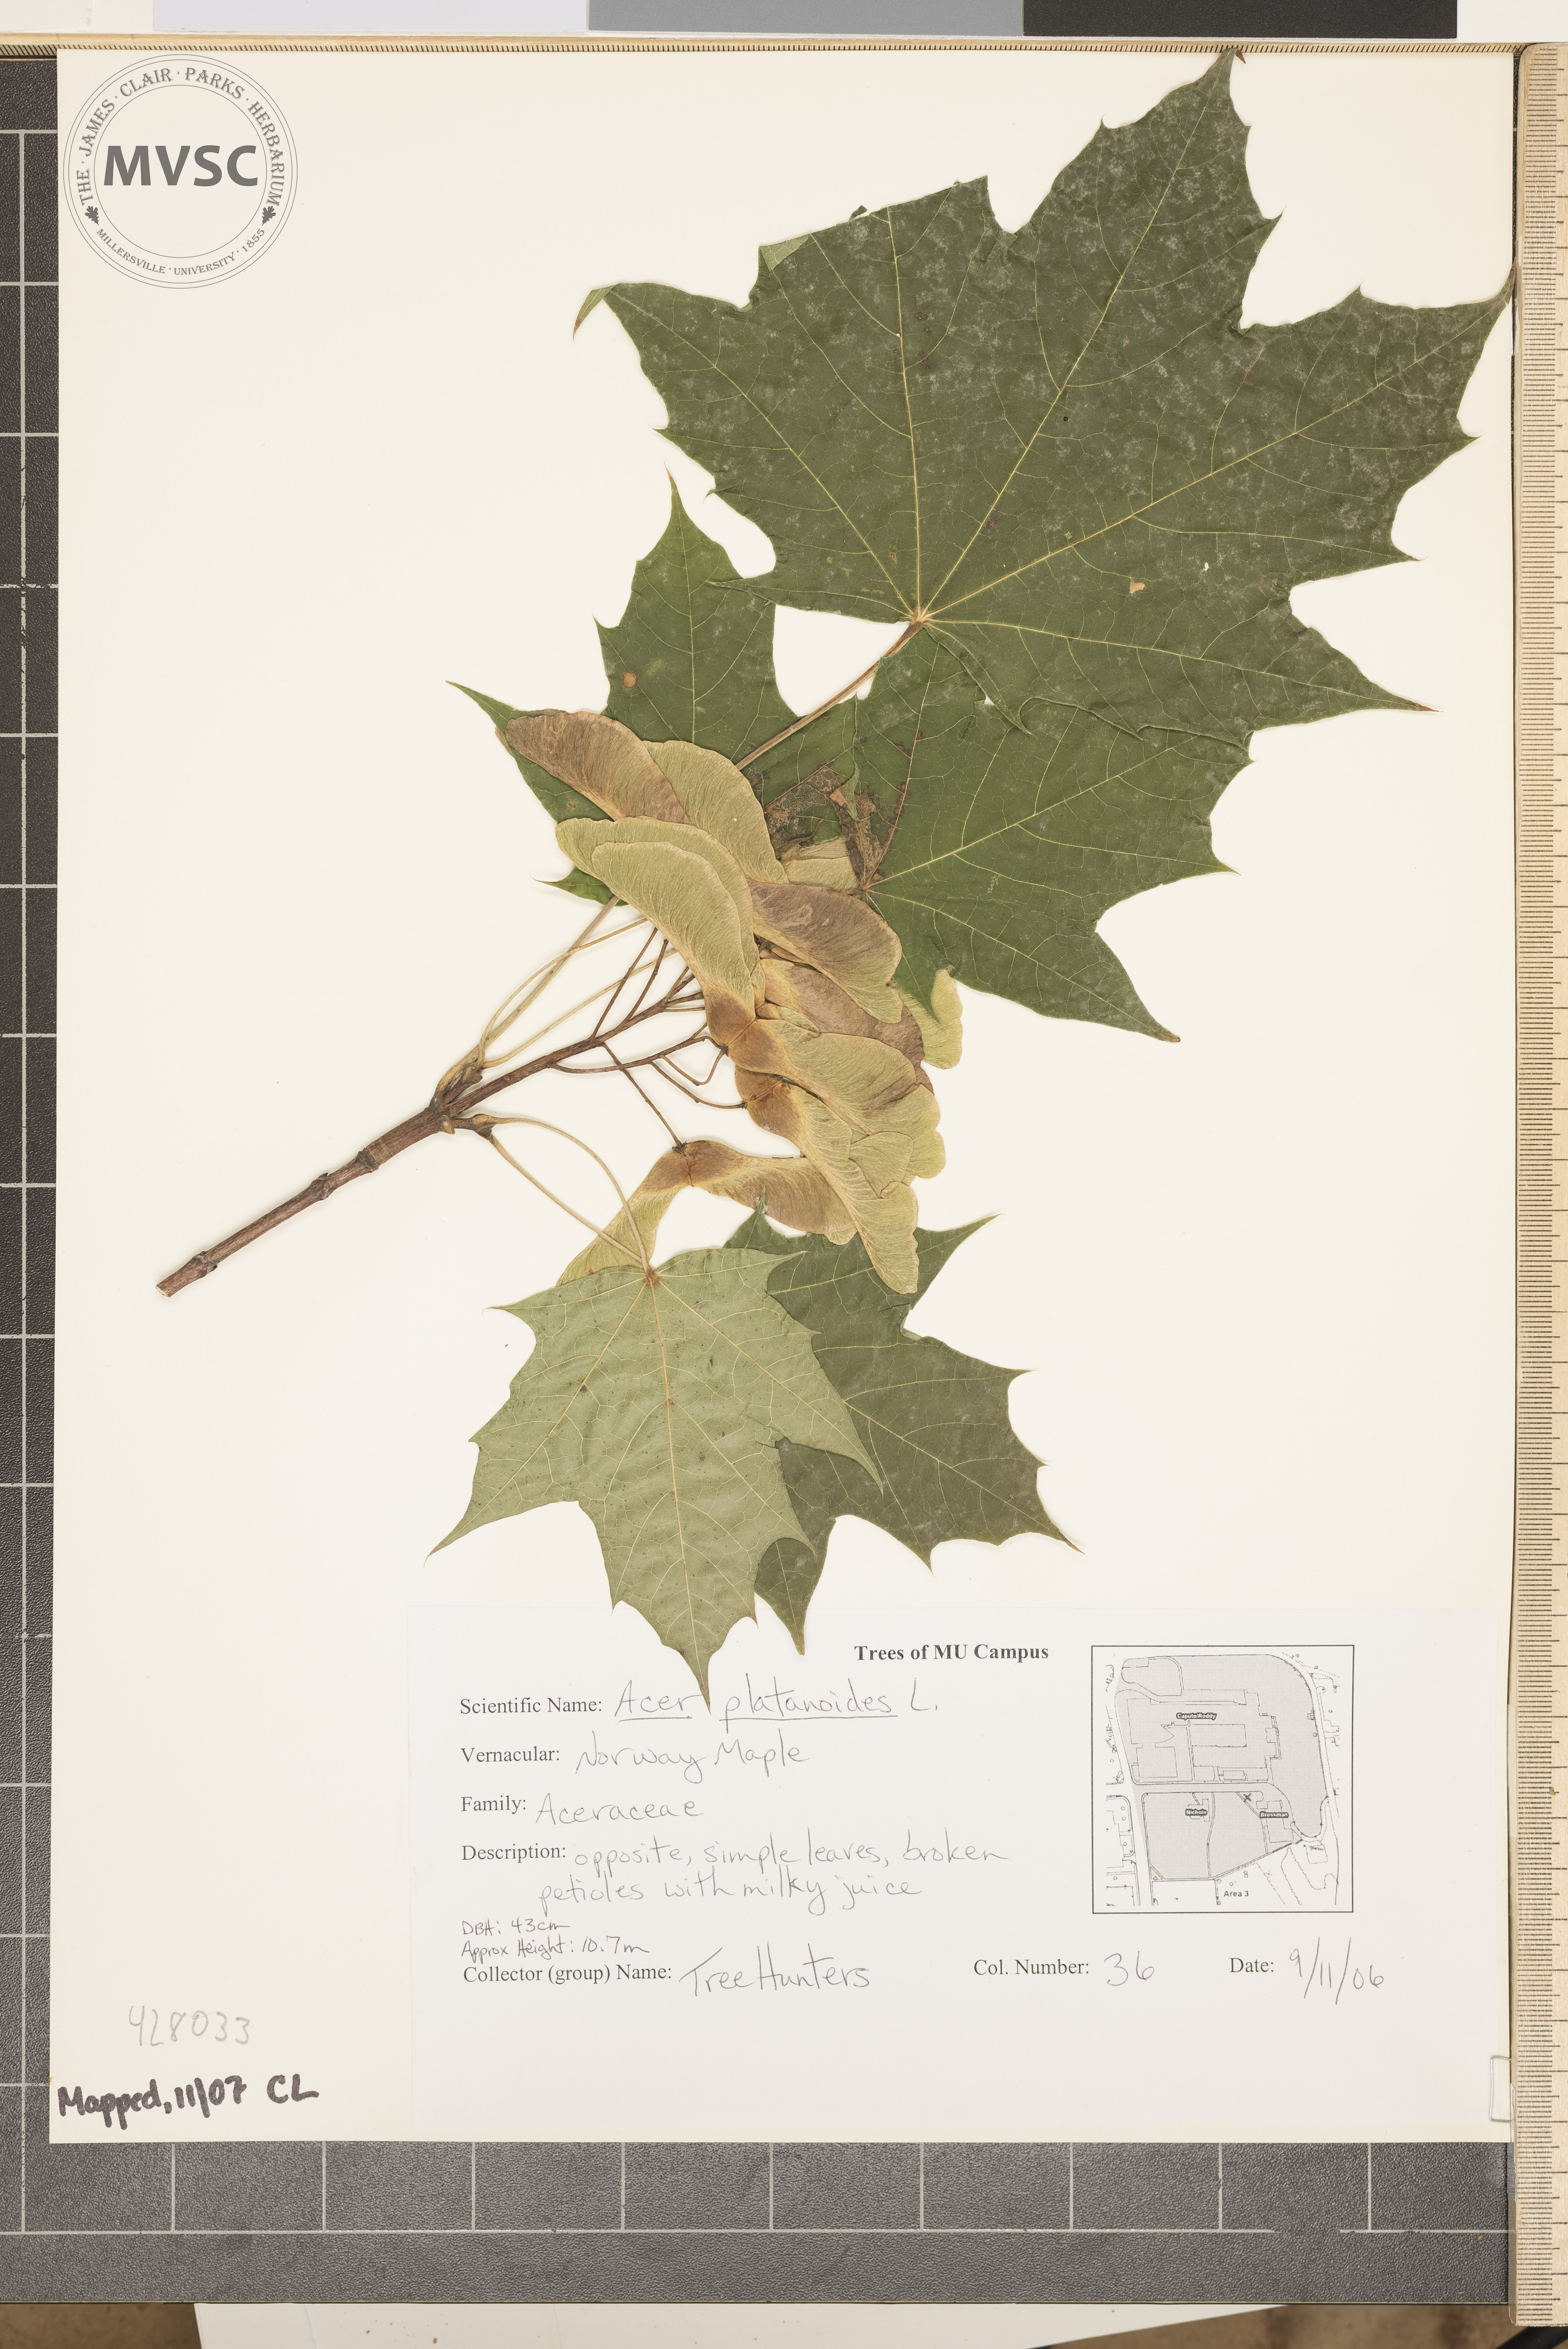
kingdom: Plantae
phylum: Tracheophyta
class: Magnoliopsida
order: Sapindales
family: Sapindaceae
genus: Acer
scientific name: Acer platanoides
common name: Norway Maple
